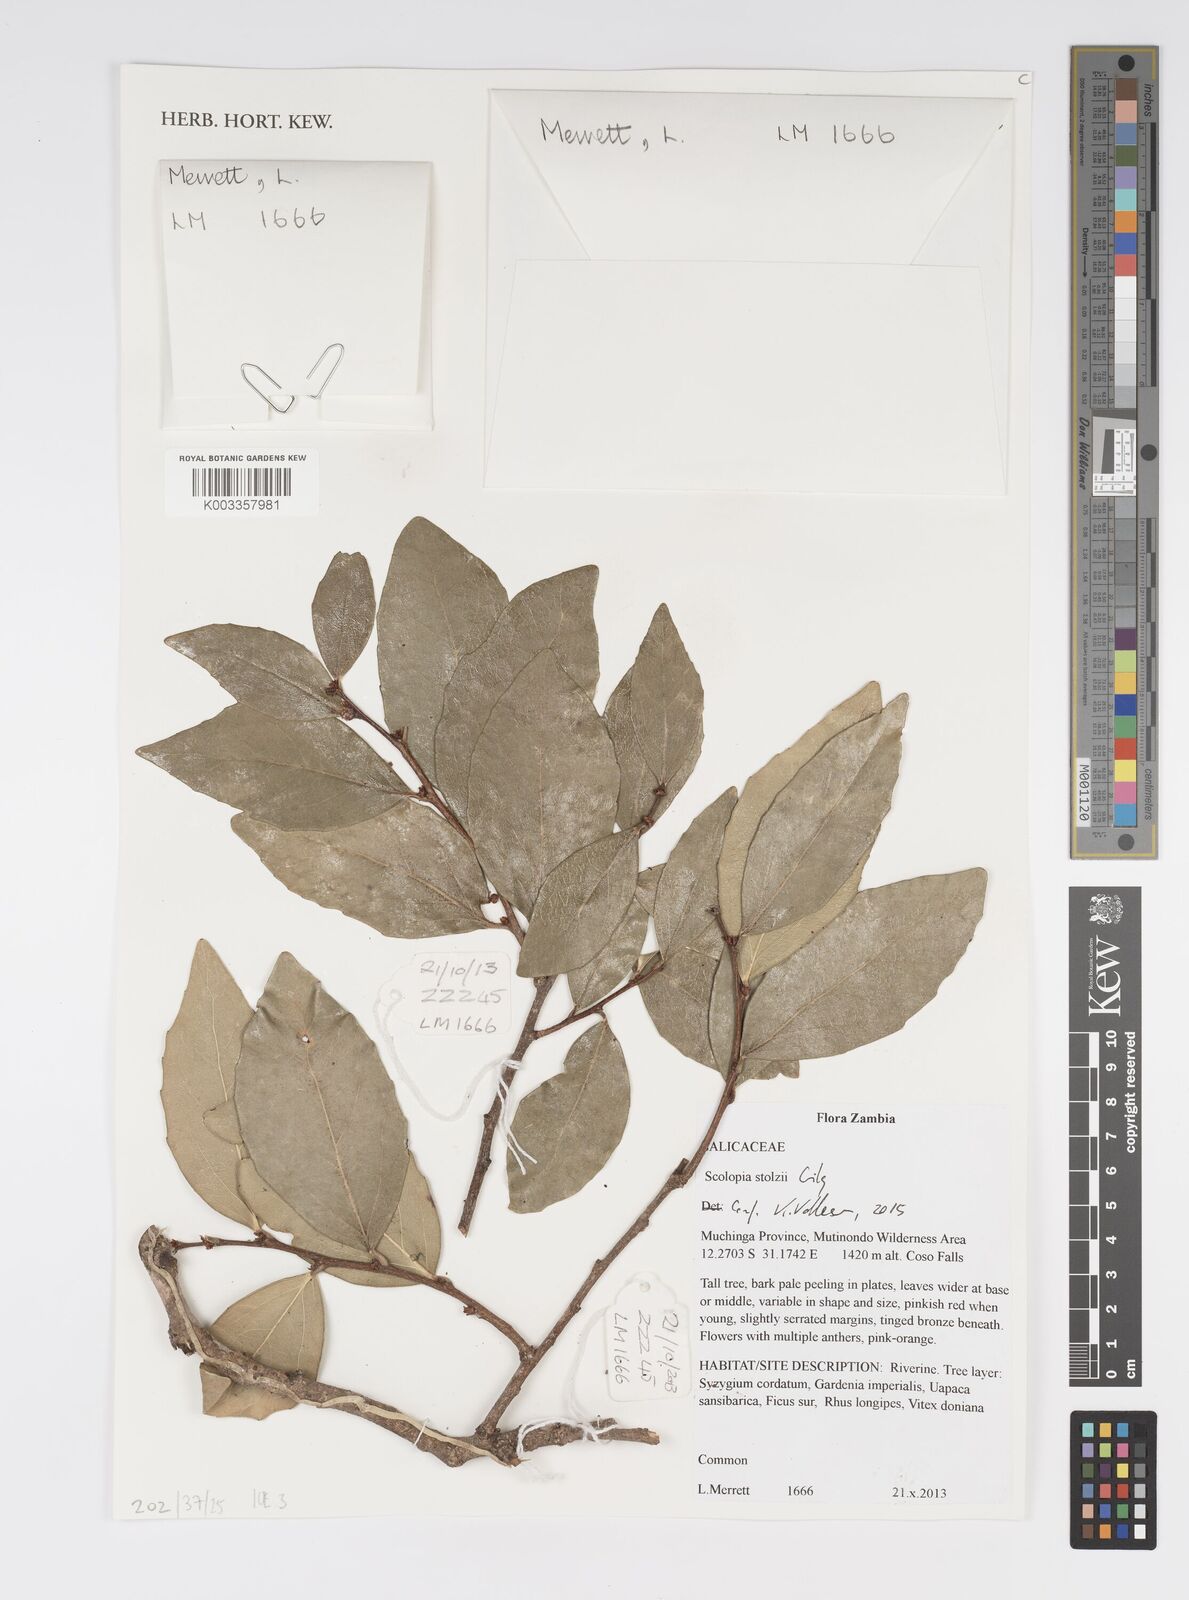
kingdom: Plantae
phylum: Tracheophyta
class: Magnoliopsida
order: Malpighiales
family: Salicaceae
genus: Scolopia
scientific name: Scolopia stolzii
